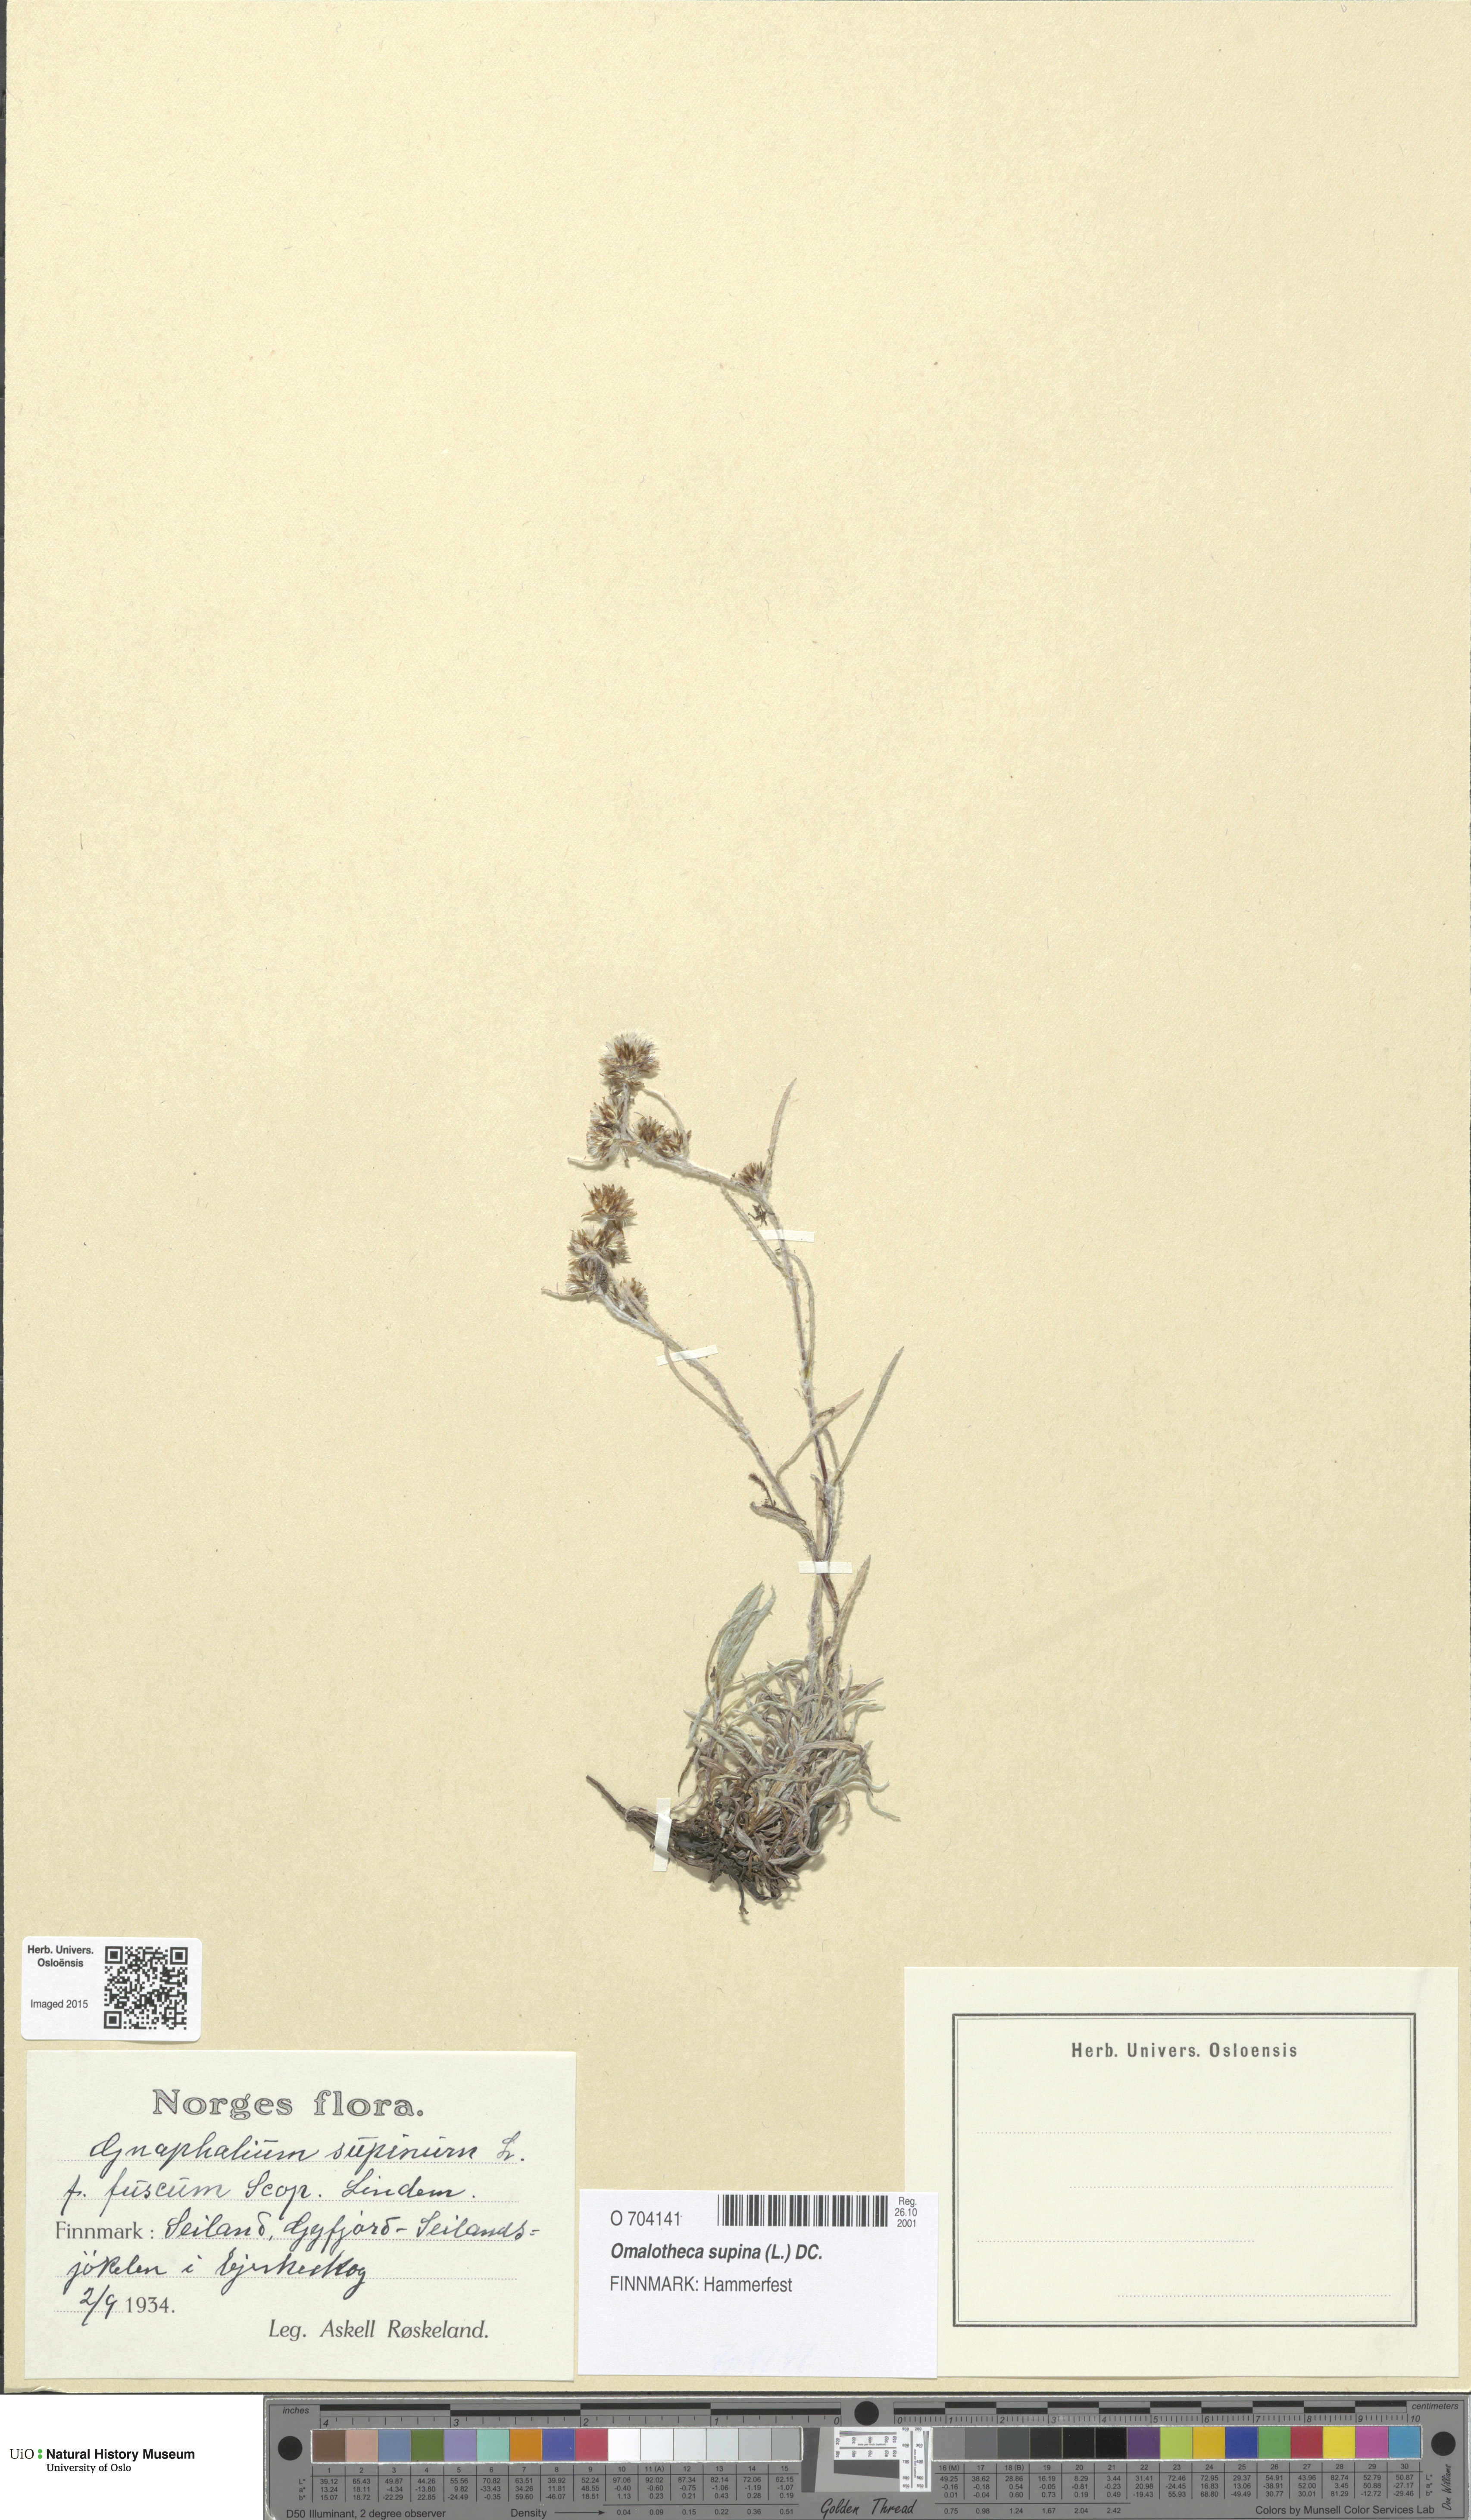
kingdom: Plantae
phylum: Tracheophyta
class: Magnoliopsida
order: Asterales
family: Asteraceae
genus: Omalotheca
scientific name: Omalotheca supina
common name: Alpine arctic-cudweed
